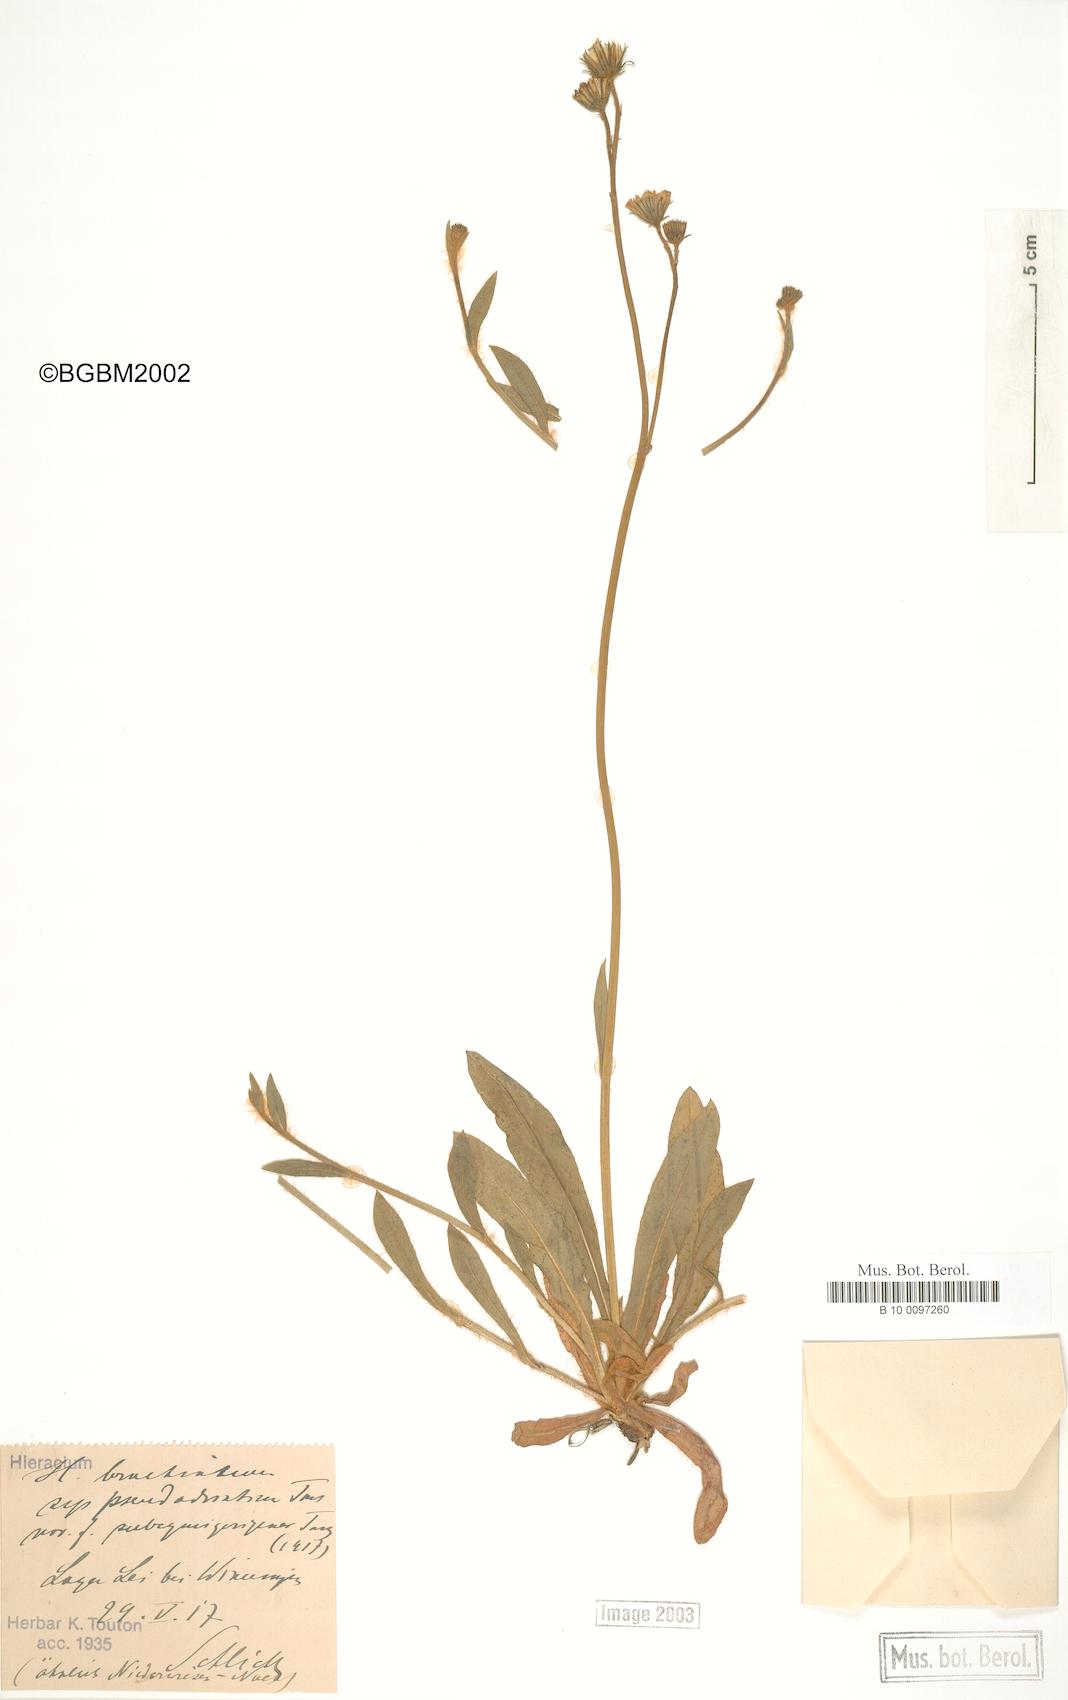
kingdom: Plantae
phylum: Tracheophyta
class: Magnoliopsida
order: Asterales
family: Asteraceae
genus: Pilosella
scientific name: Pilosella acutifolia
